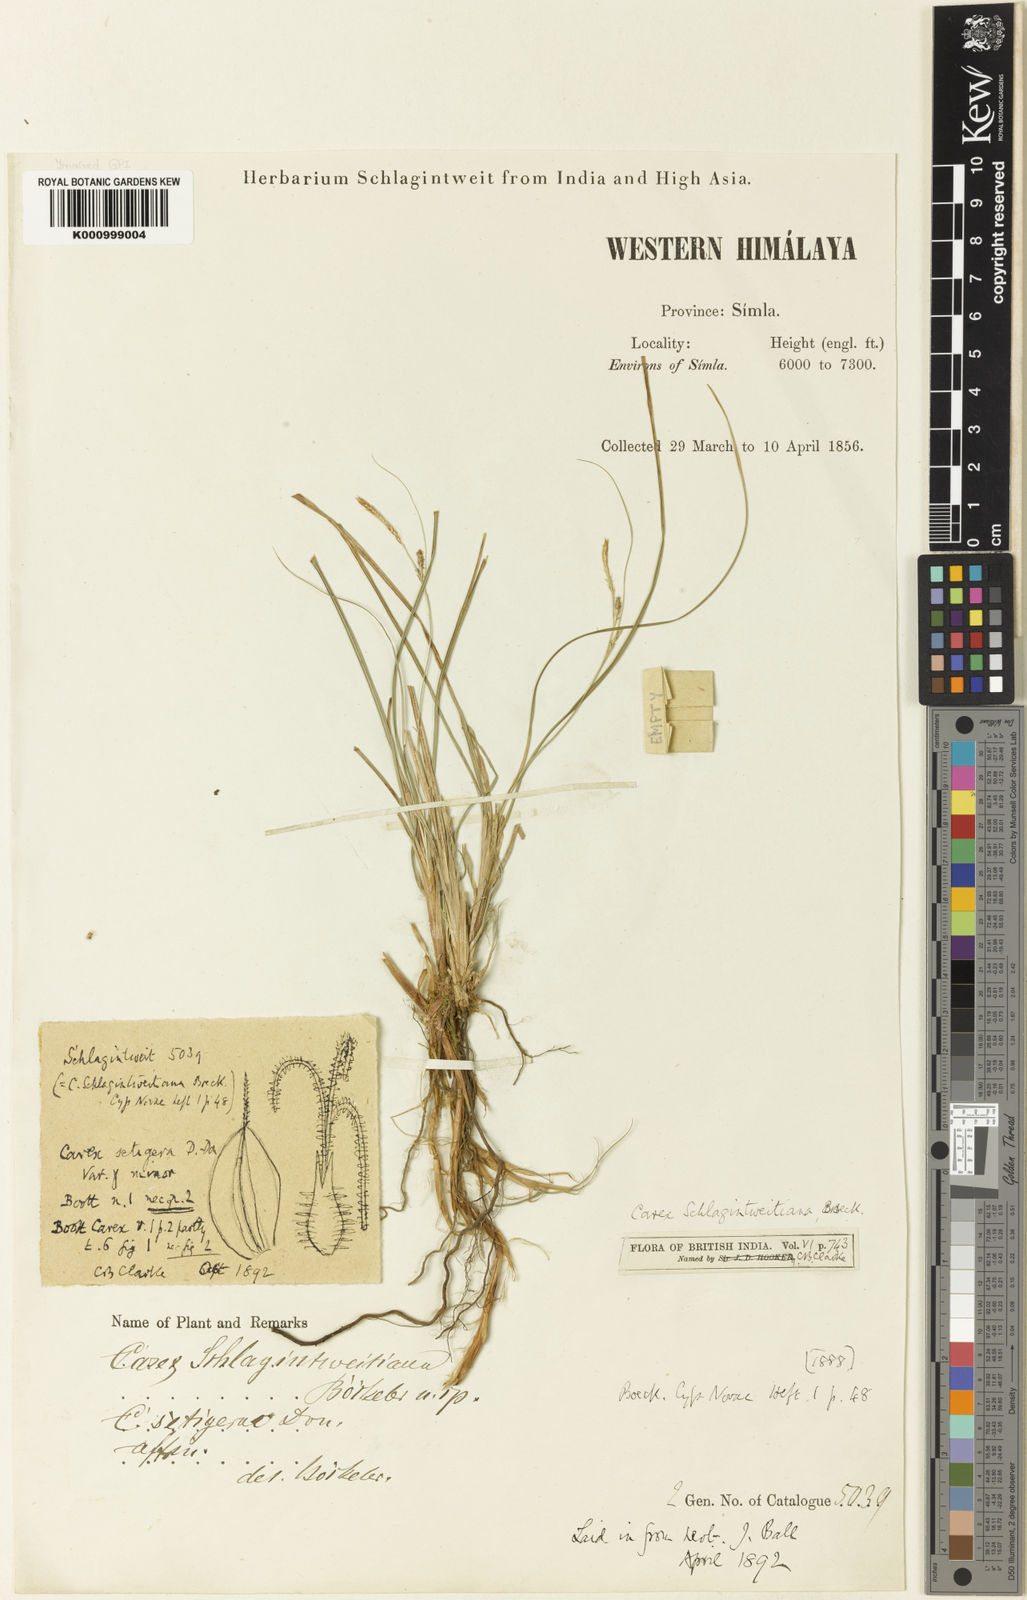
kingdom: Plantae
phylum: Tracheophyta
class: Liliopsida
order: Poales
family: Cyperaceae
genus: Carex
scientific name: Carex setigera
